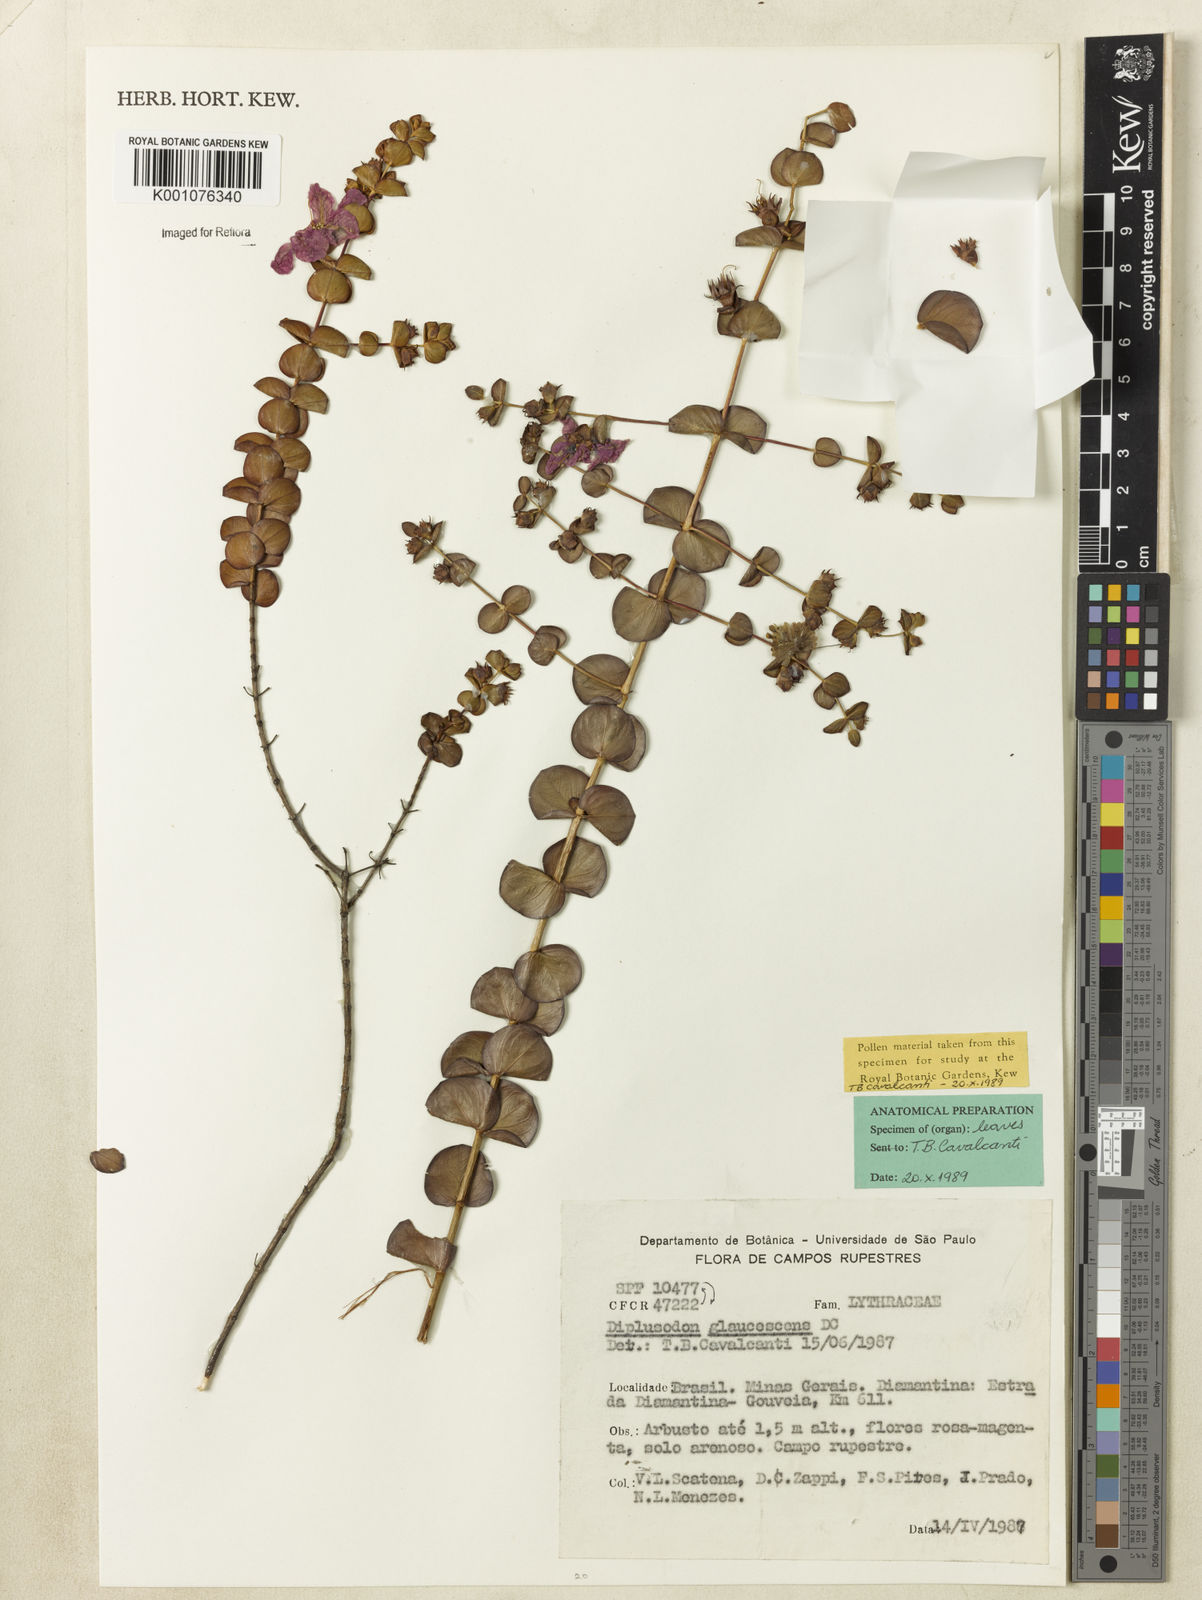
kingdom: Plantae
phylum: Tracheophyta
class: Magnoliopsida
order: Myrtales
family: Lythraceae
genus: Diplusodon
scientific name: Diplusodon glaucescens
